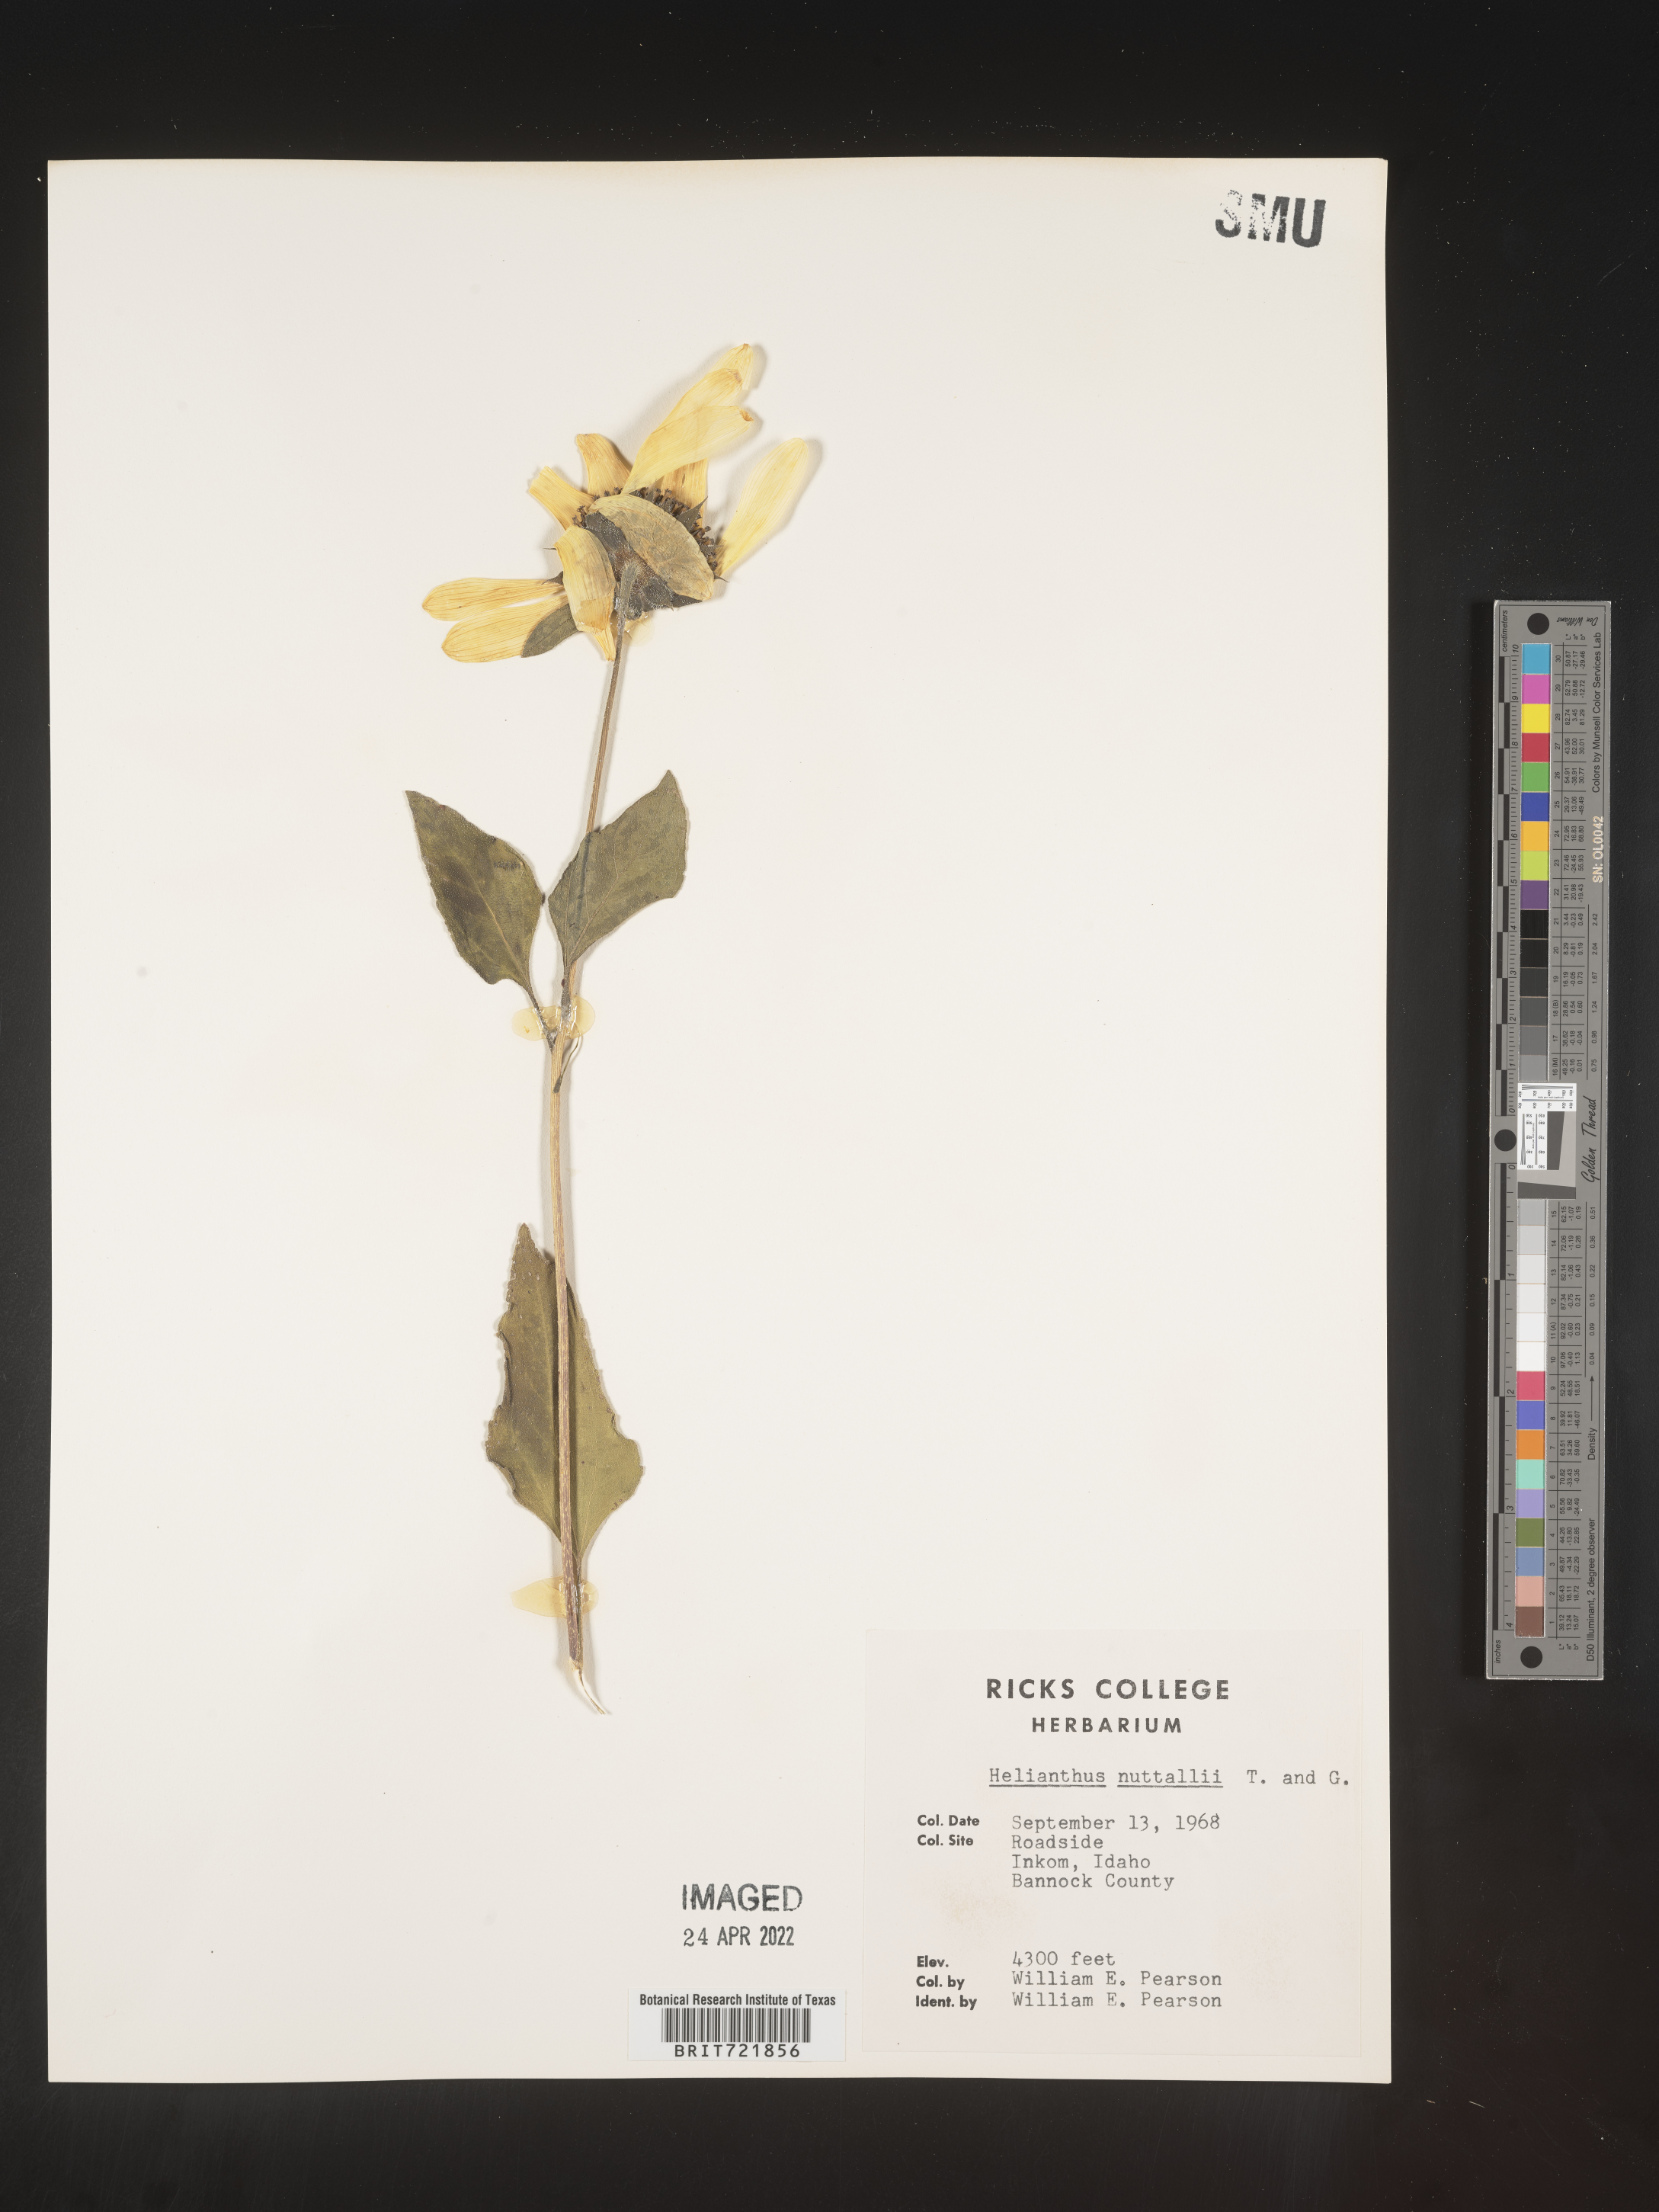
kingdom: Plantae
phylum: Tracheophyta
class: Magnoliopsida
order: Asterales
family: Asteraceae
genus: Helianthus
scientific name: Helianthus annuus
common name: Sunflower
